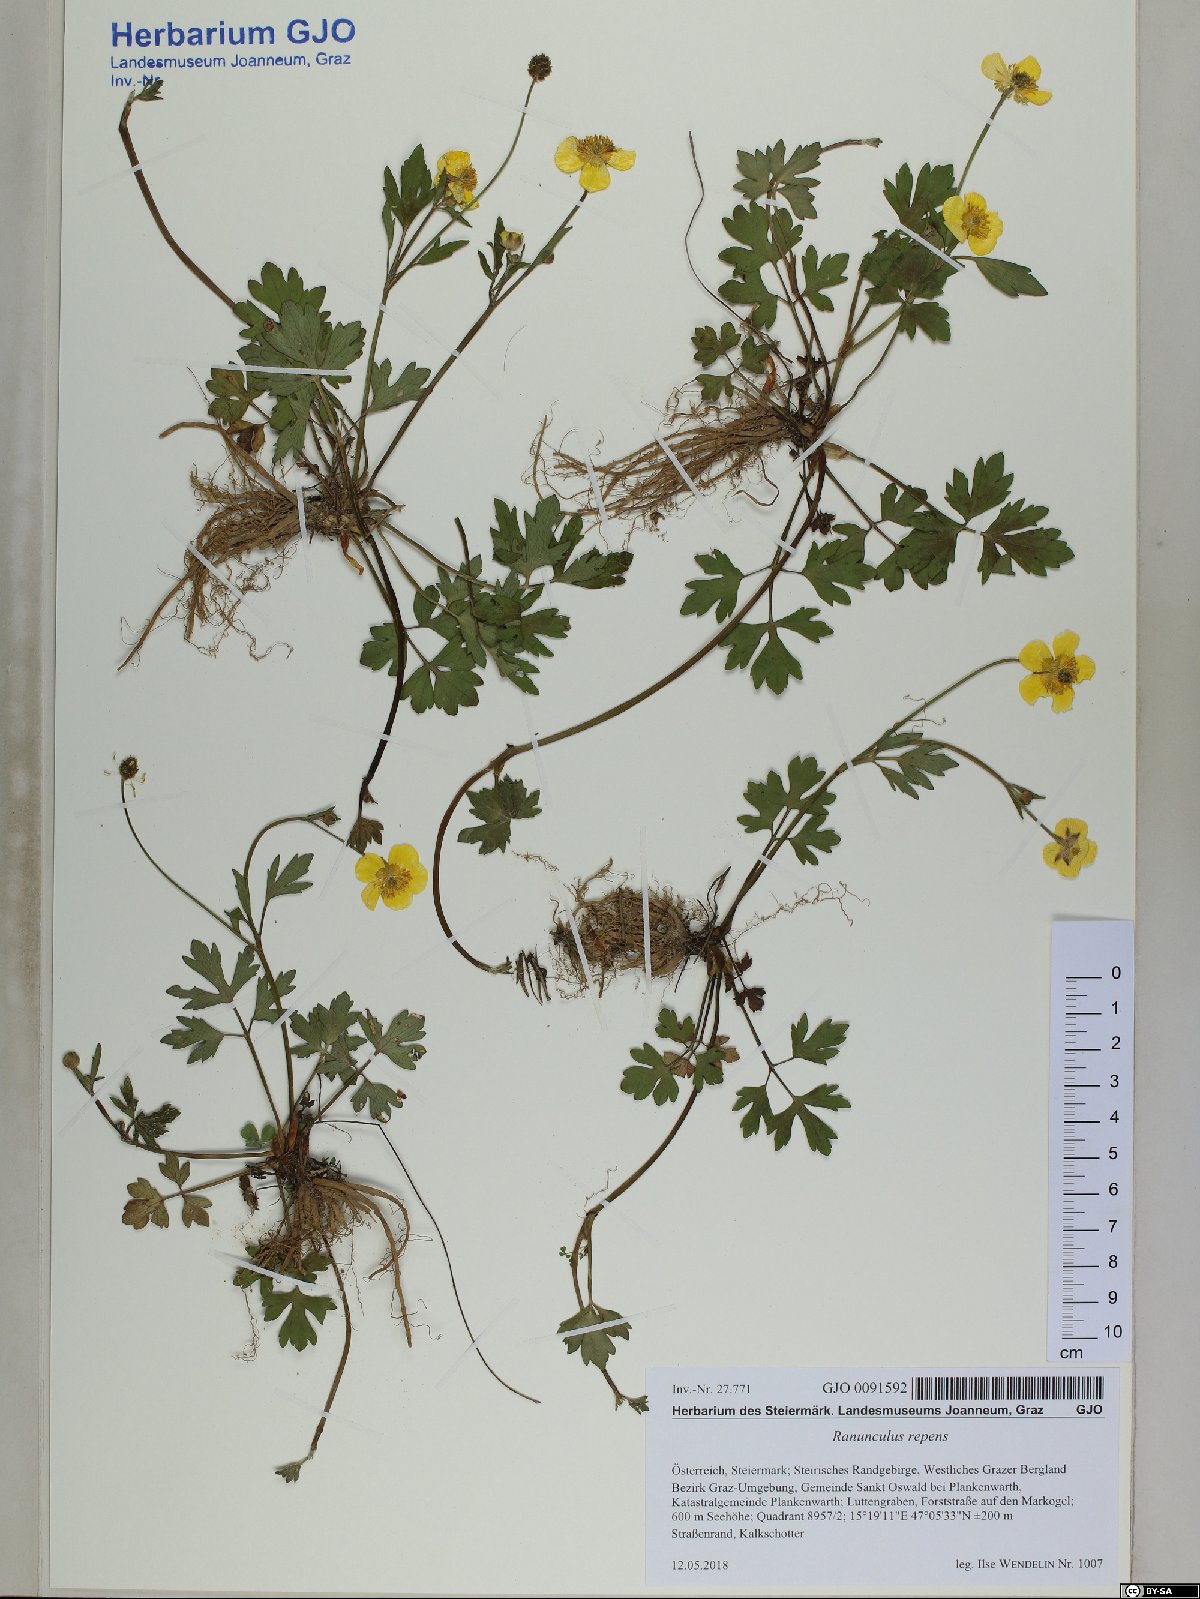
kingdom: Plantae
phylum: Tracheophyta
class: Magnoliopsida
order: Ranunculales
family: Ranunculaceae
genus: Ranunculus
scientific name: Ranunculus repens
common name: Creeping buttercup
